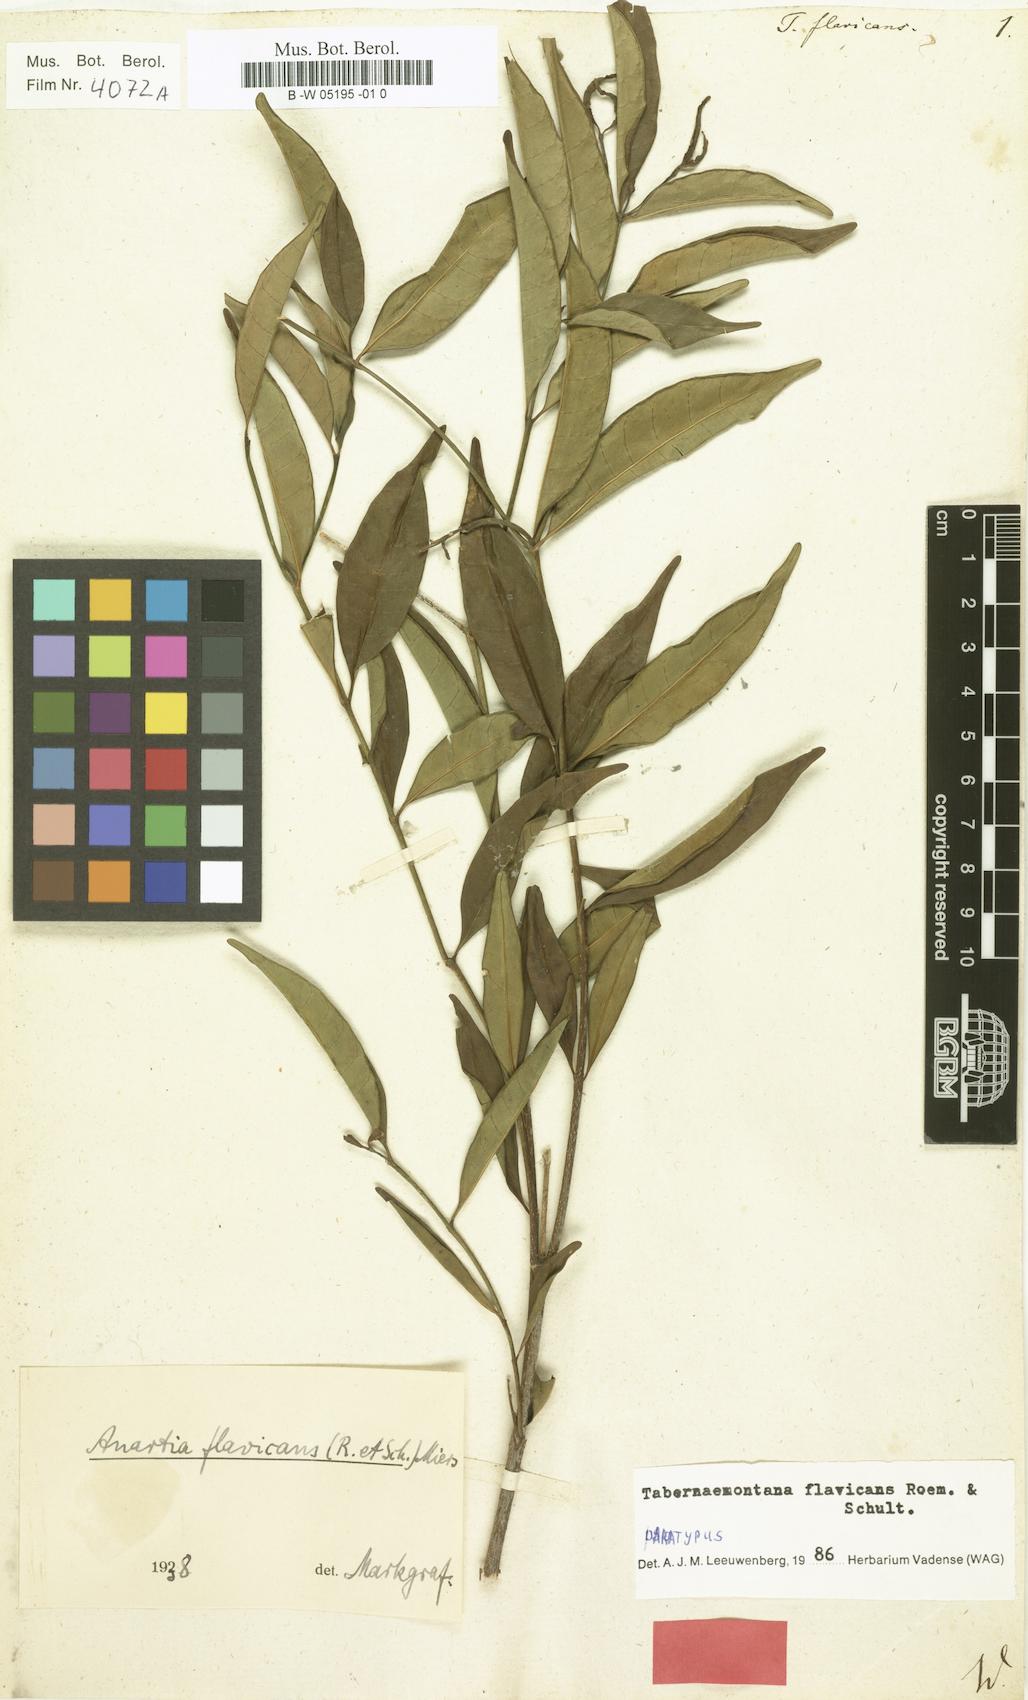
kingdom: Plantae
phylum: Tracheophyta
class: Magnoliopsida
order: Gentianales
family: Apocynaceae
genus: Tabernaemontana
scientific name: Tabernaemontana flavicans
